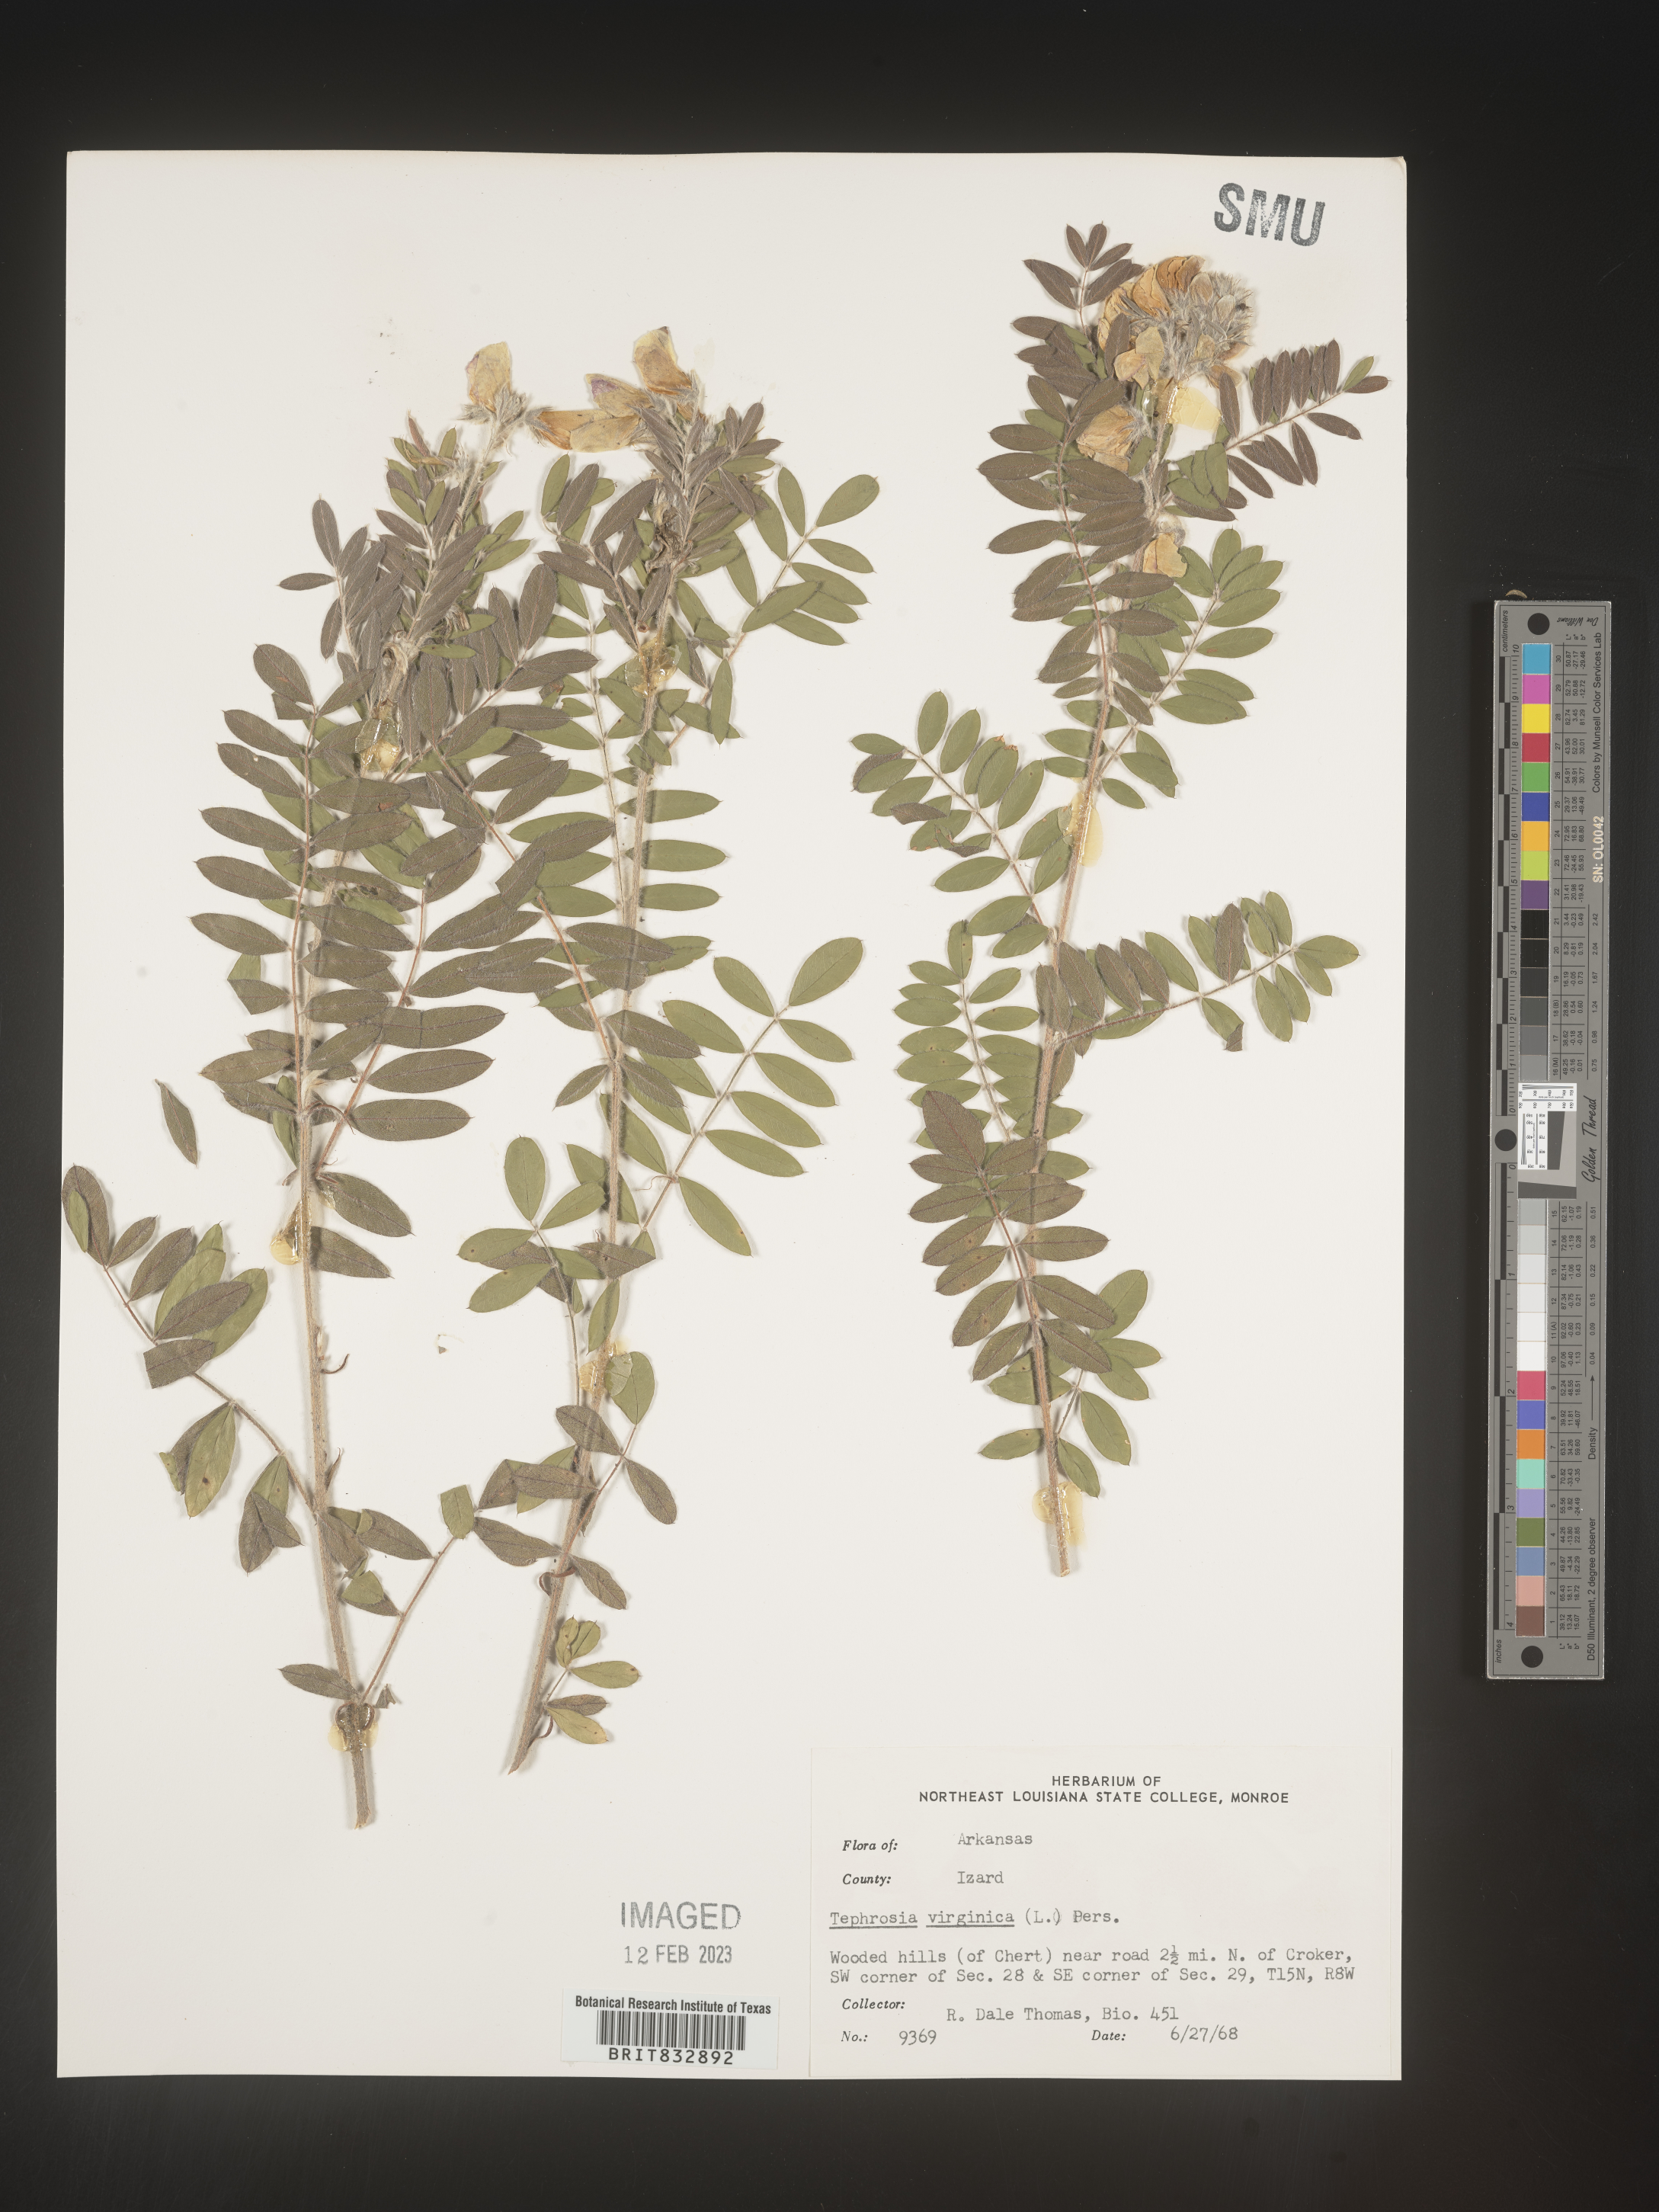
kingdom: Plantae
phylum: Tracheophyta
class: Magnoliopsida
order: Fabales
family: Fabaceae
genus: Tephrosia
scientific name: Tephrosia virginiana
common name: Rabbit-pea
